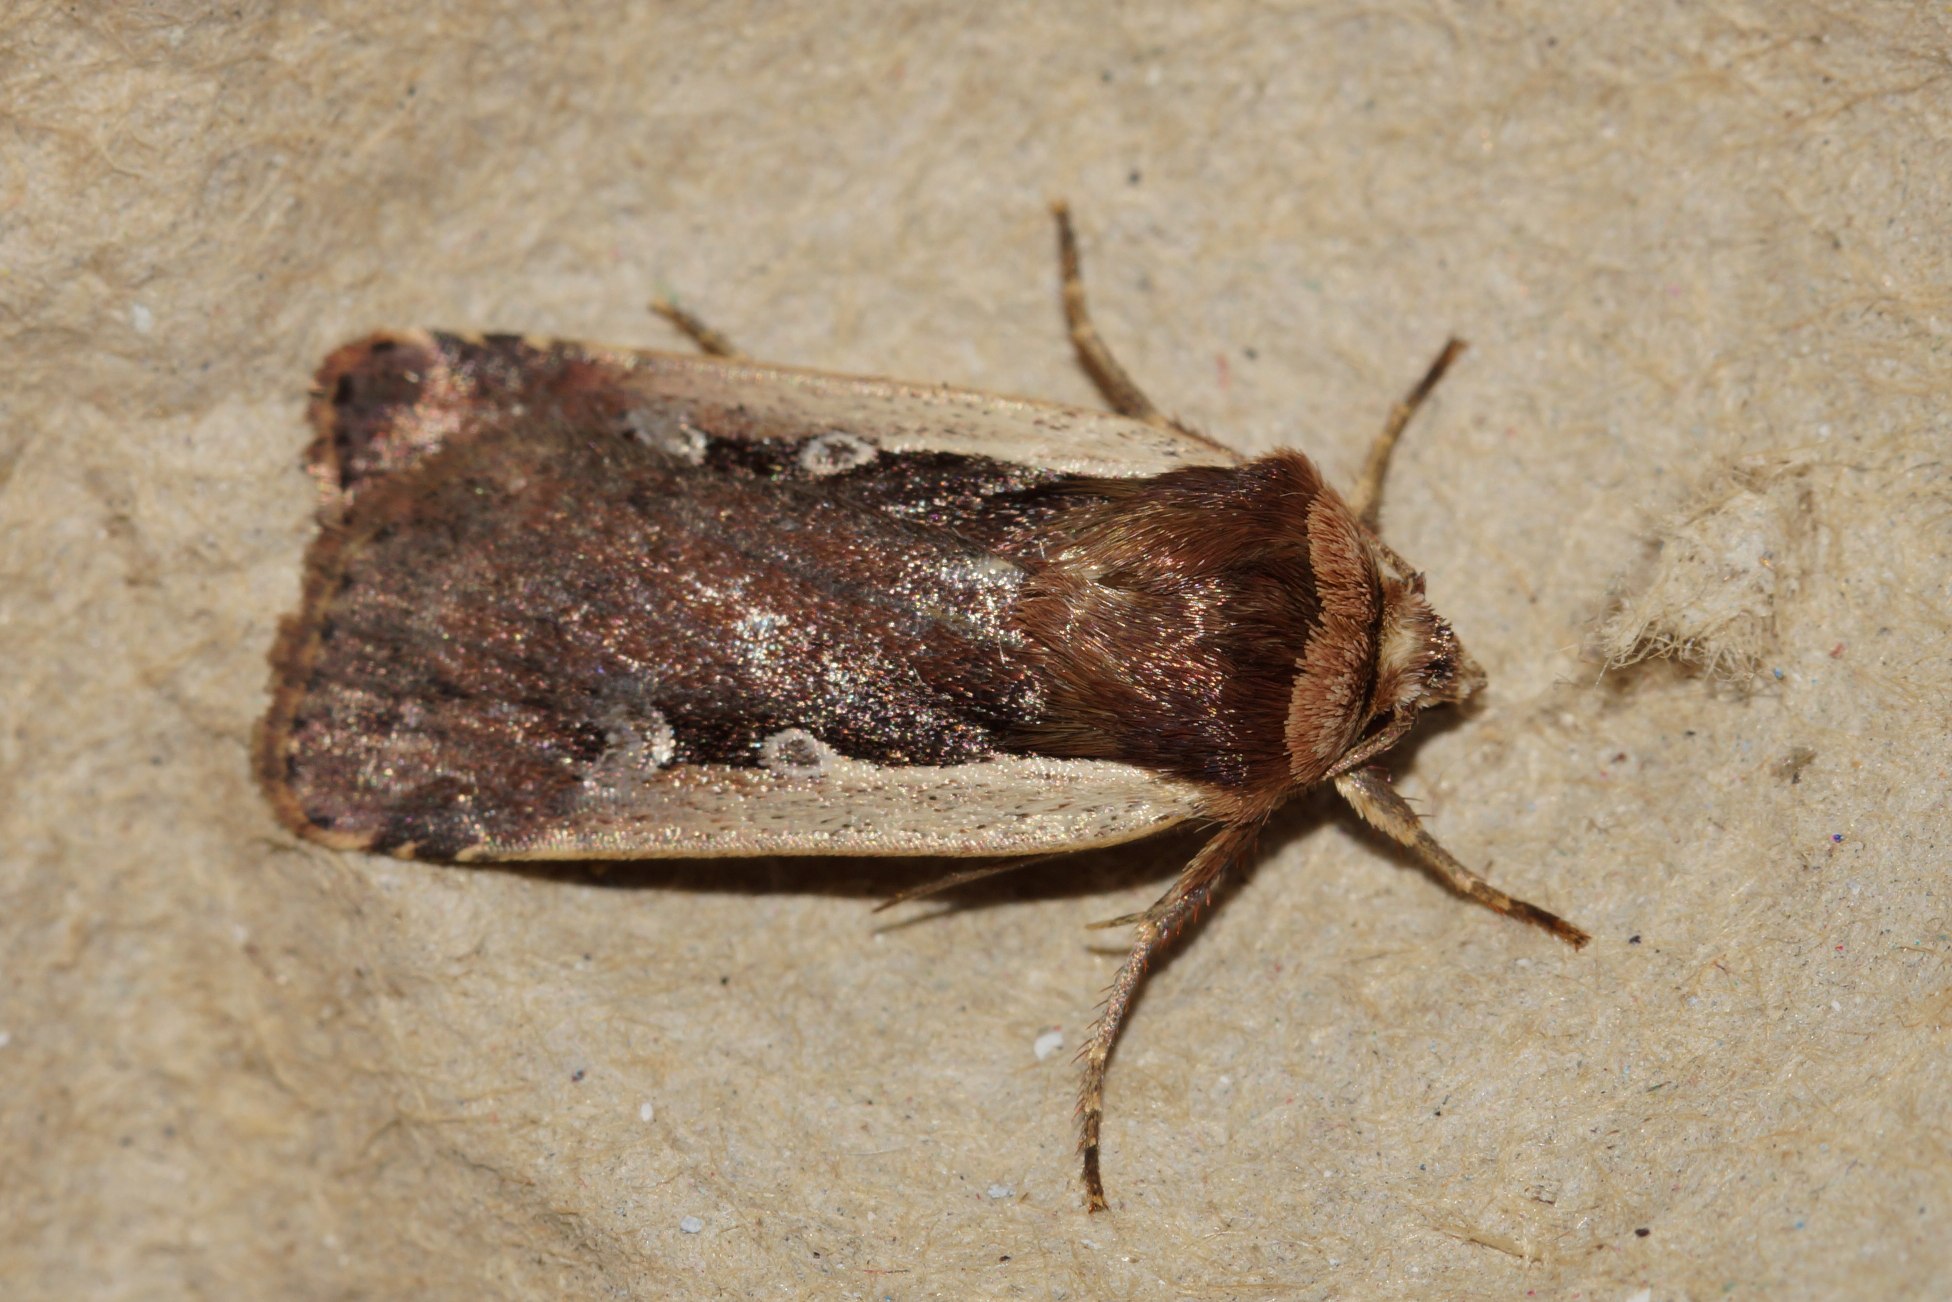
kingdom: Animalia
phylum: Arthropoda
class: Insecta
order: Lepidoptera
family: Noctuidae
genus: Ochropleura
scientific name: Ochropleura plecta
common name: Hvidrandet jordugle
